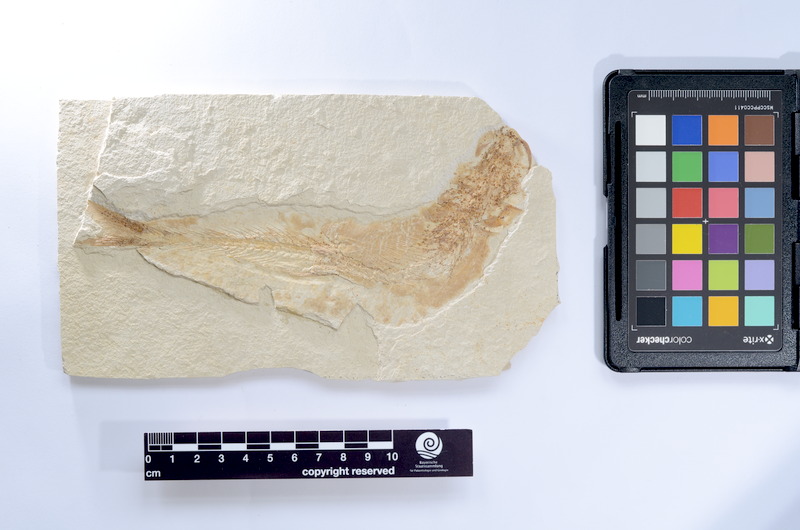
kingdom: Animalia
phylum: Chordata
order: Elopiformes
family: Anaethalionidae
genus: Anaethalion
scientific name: Anaethalion knorri
